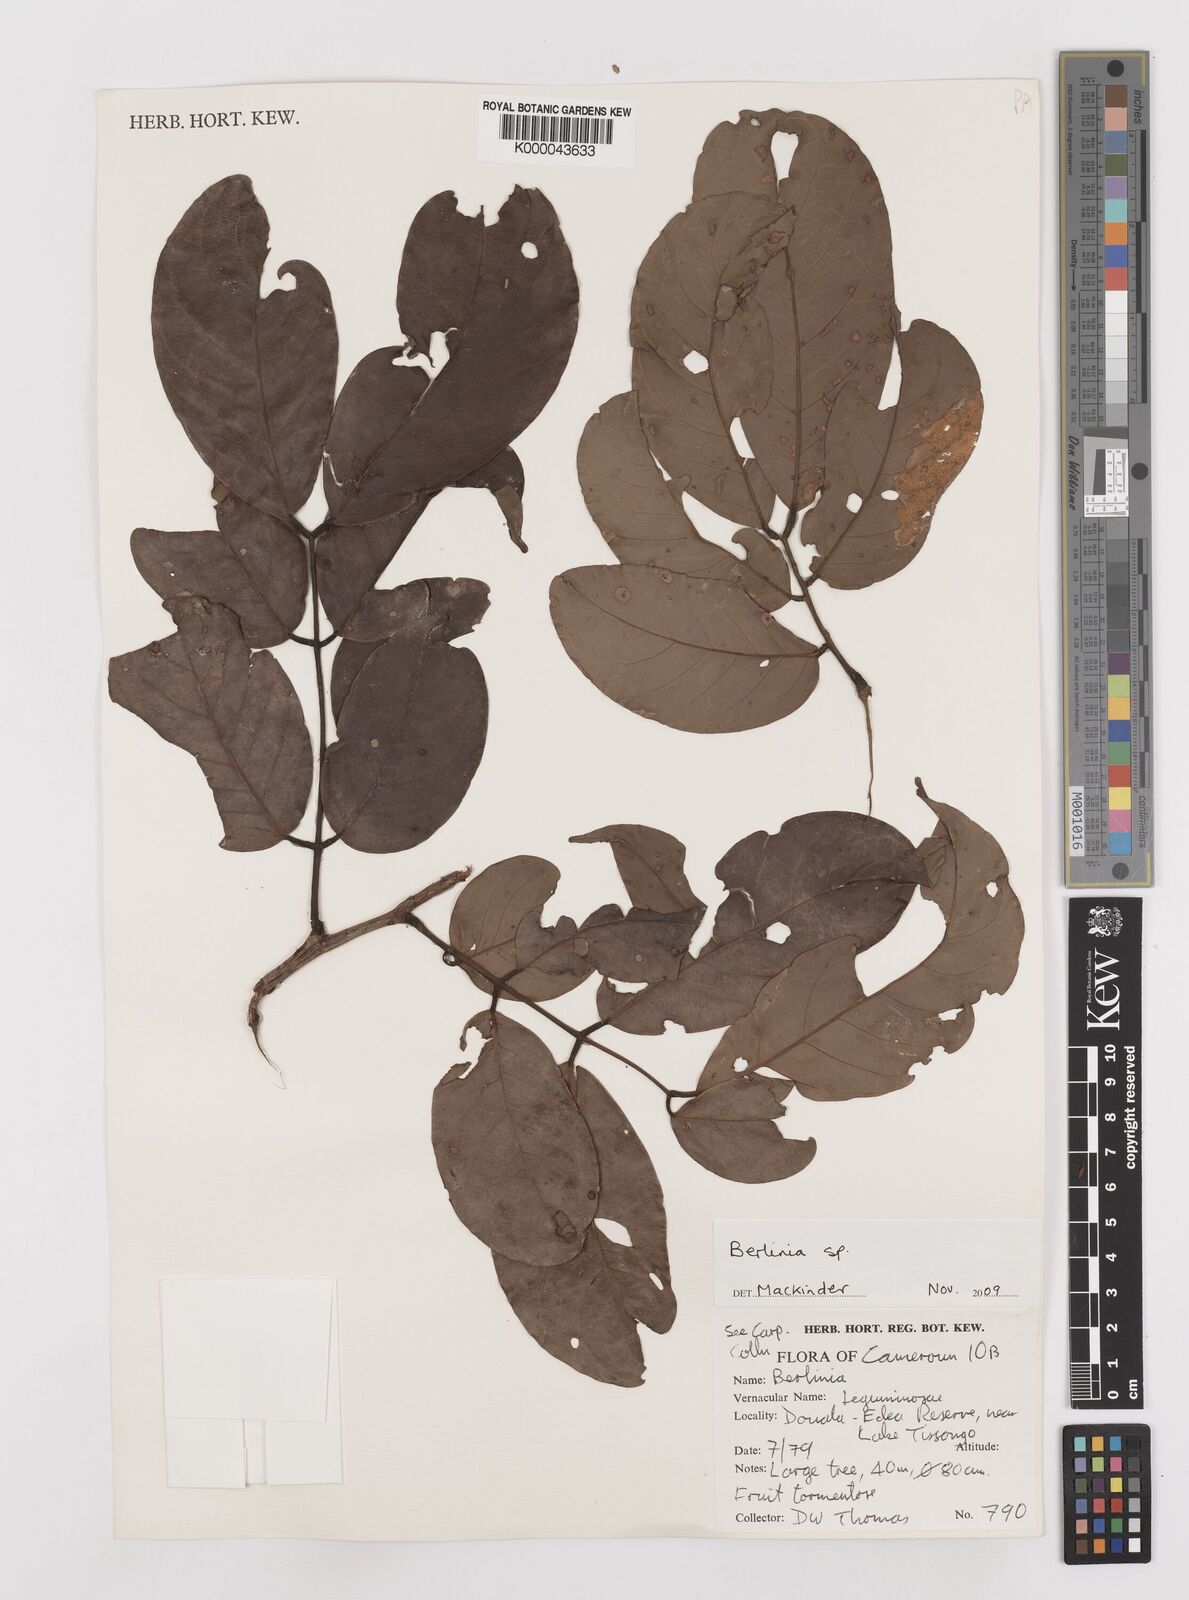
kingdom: Plantae
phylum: Tracheophyta
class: Magnoliopsida
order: Fabales
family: Fabaceae
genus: Berlinia
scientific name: Berlinia tomentella
